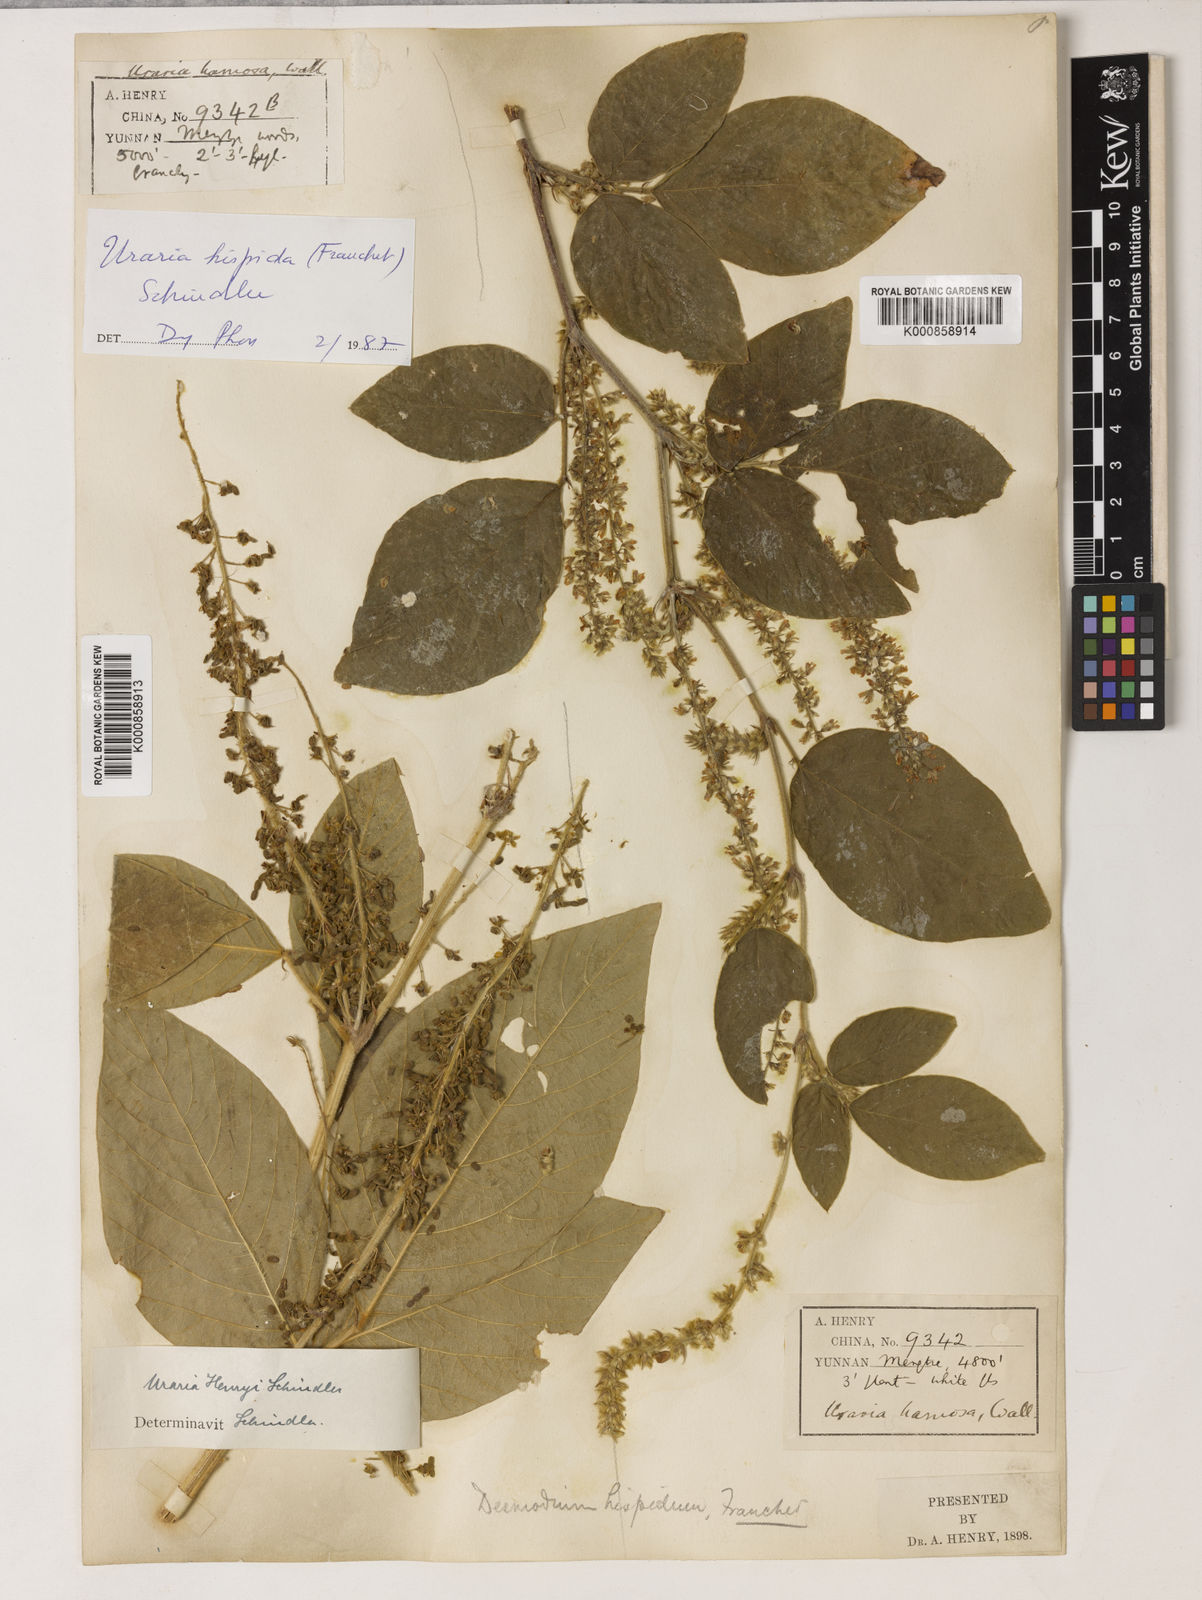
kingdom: Plantae
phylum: Tracheophyta
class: Magnoliopsida
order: Fabales
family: Fabaceae
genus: Sohmaea
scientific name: Sohmaea hispida
